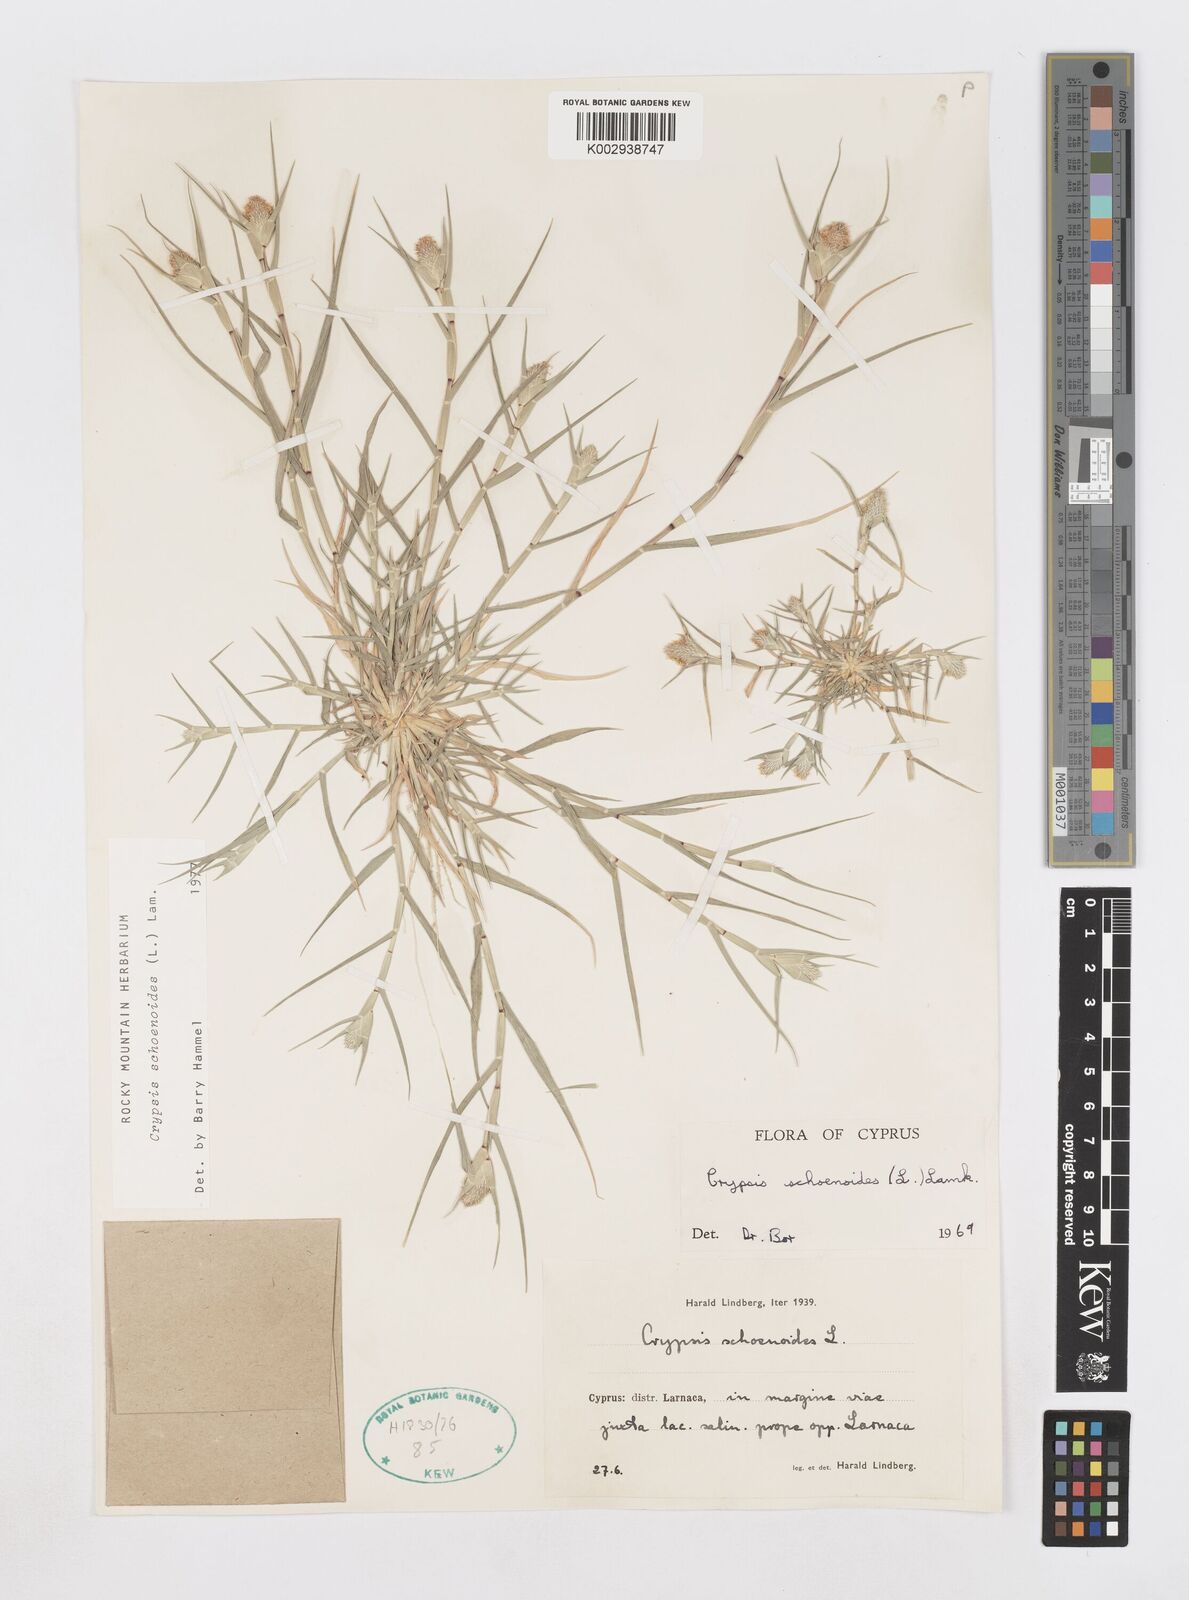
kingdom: Plantae
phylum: Tracheophyta
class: Liliopsida
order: Poales
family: Poaceae
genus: Sporobolus
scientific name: Sporobolus schoenoides
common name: Rush-like timothy
